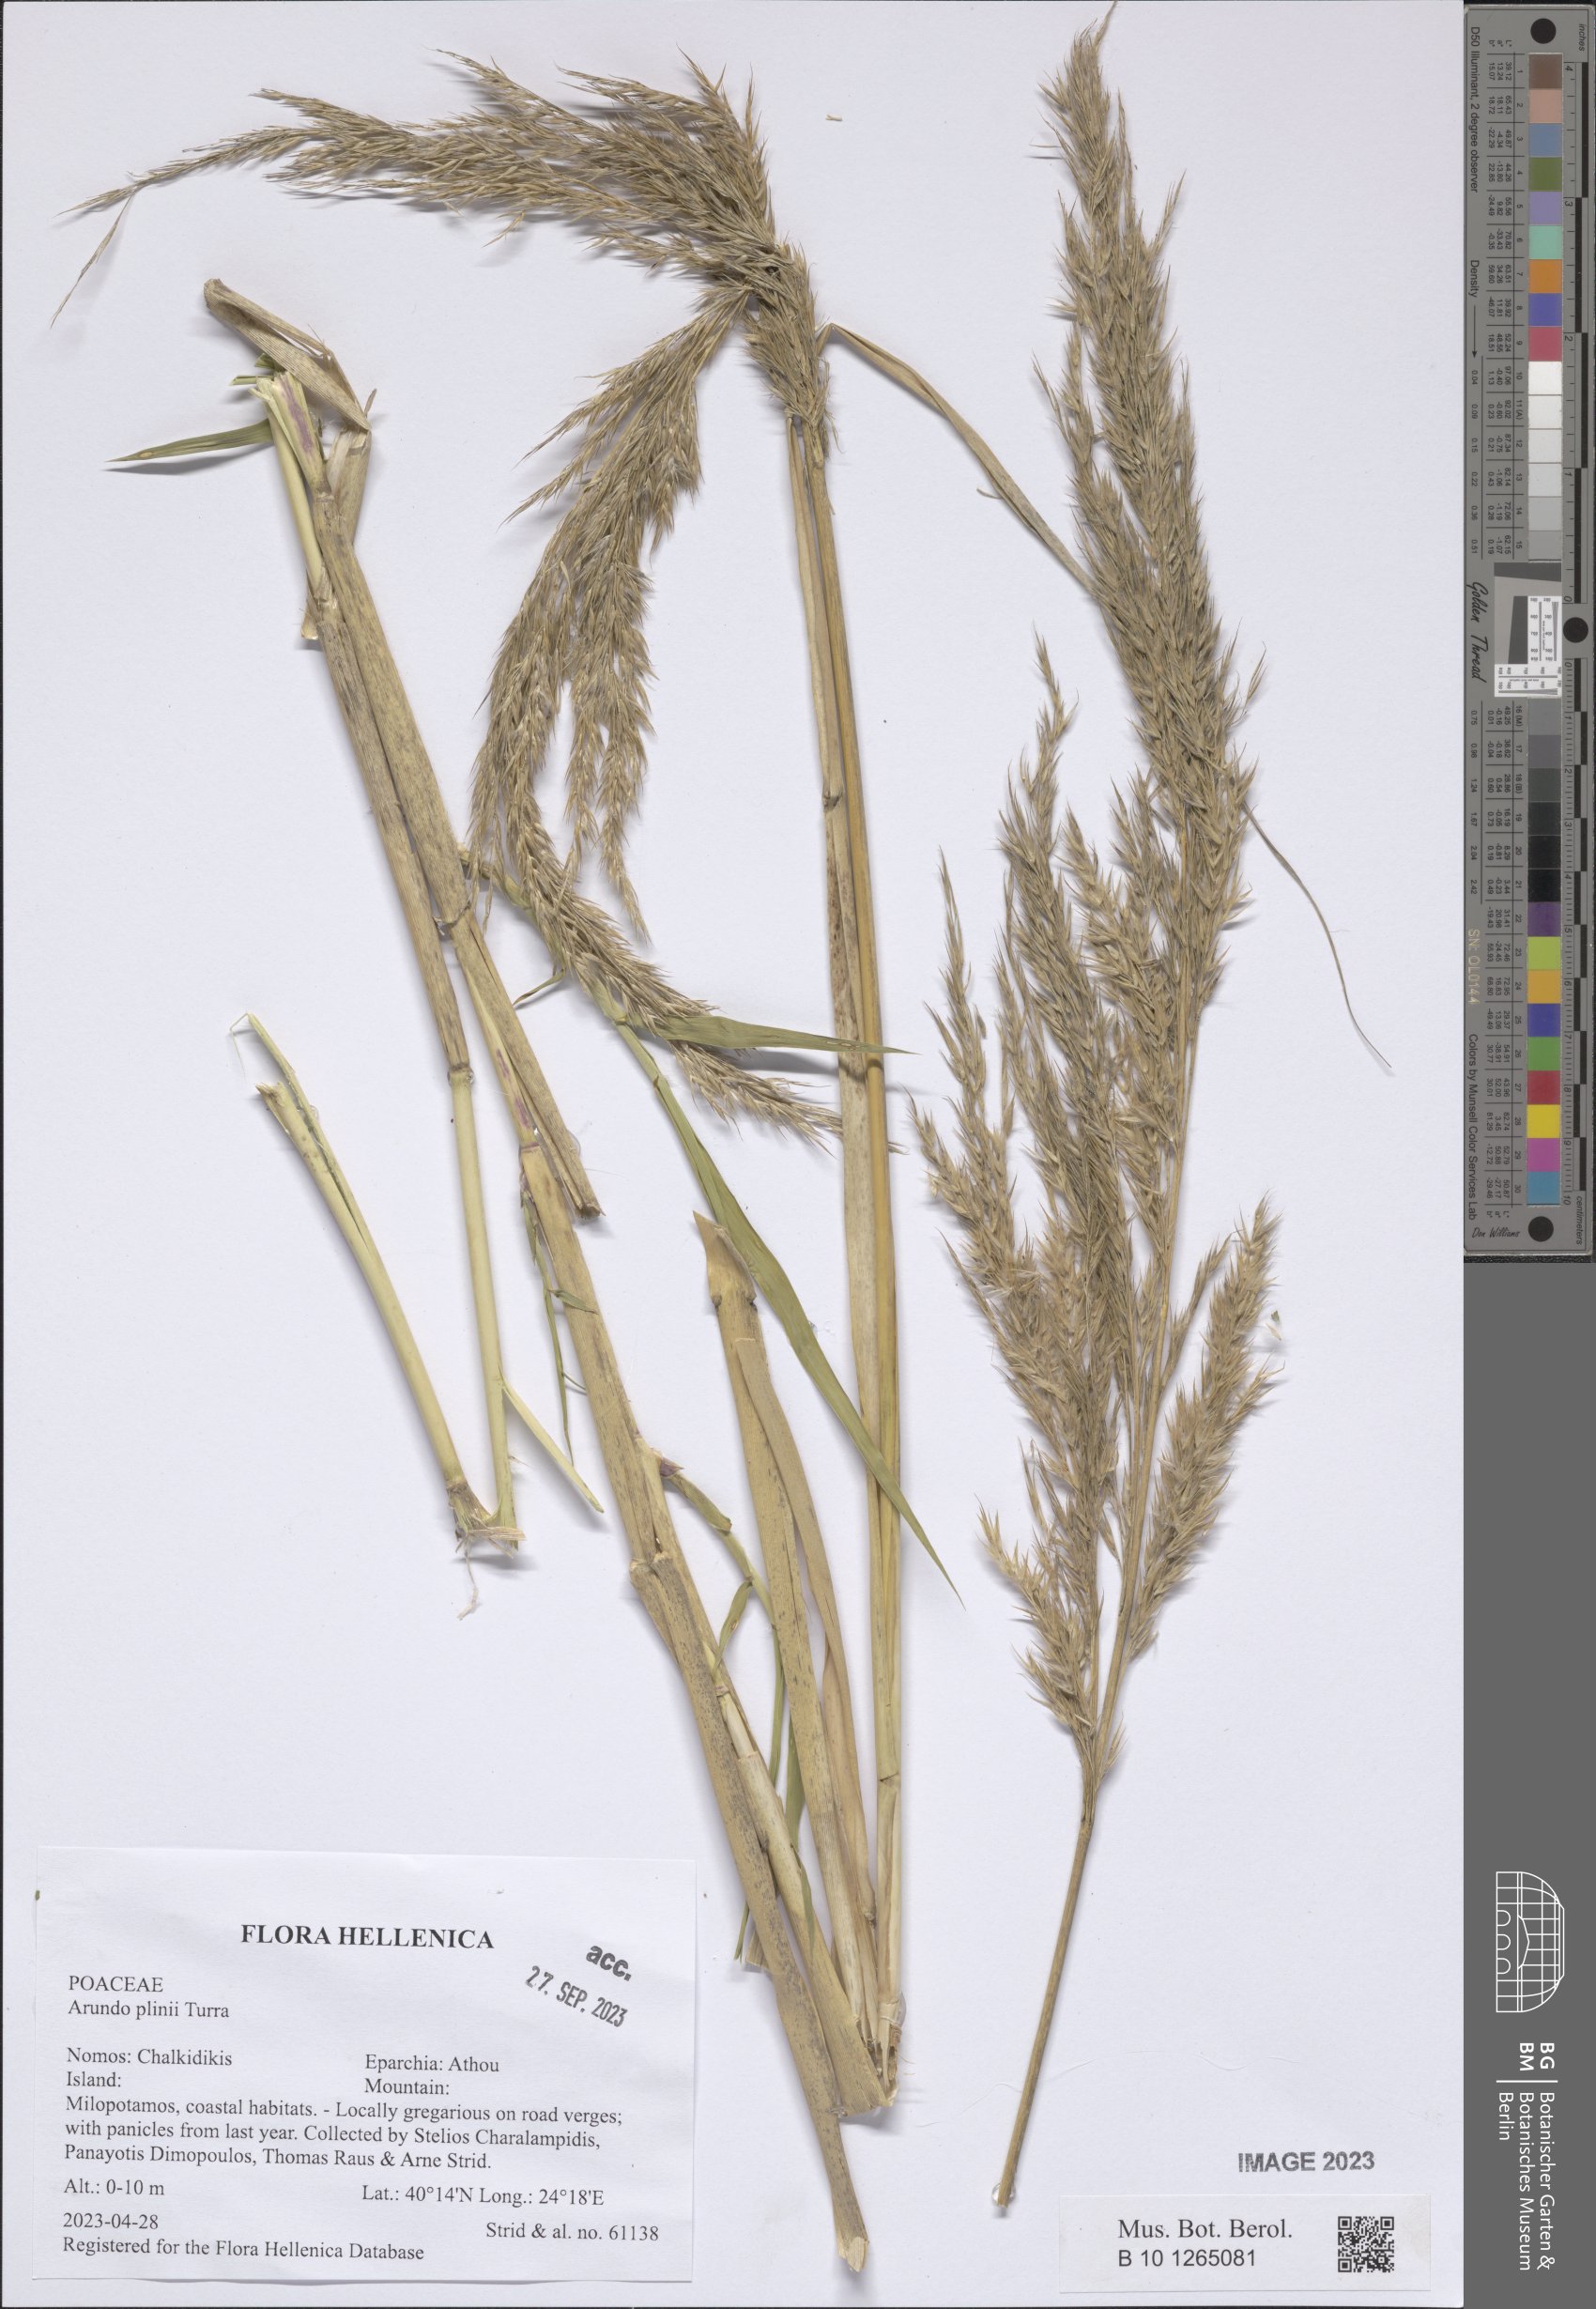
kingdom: Plantae
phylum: Tracheophyta
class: Liliopsida
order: Poales
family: Poaceae
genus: Arundo
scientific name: Arundo plinii
